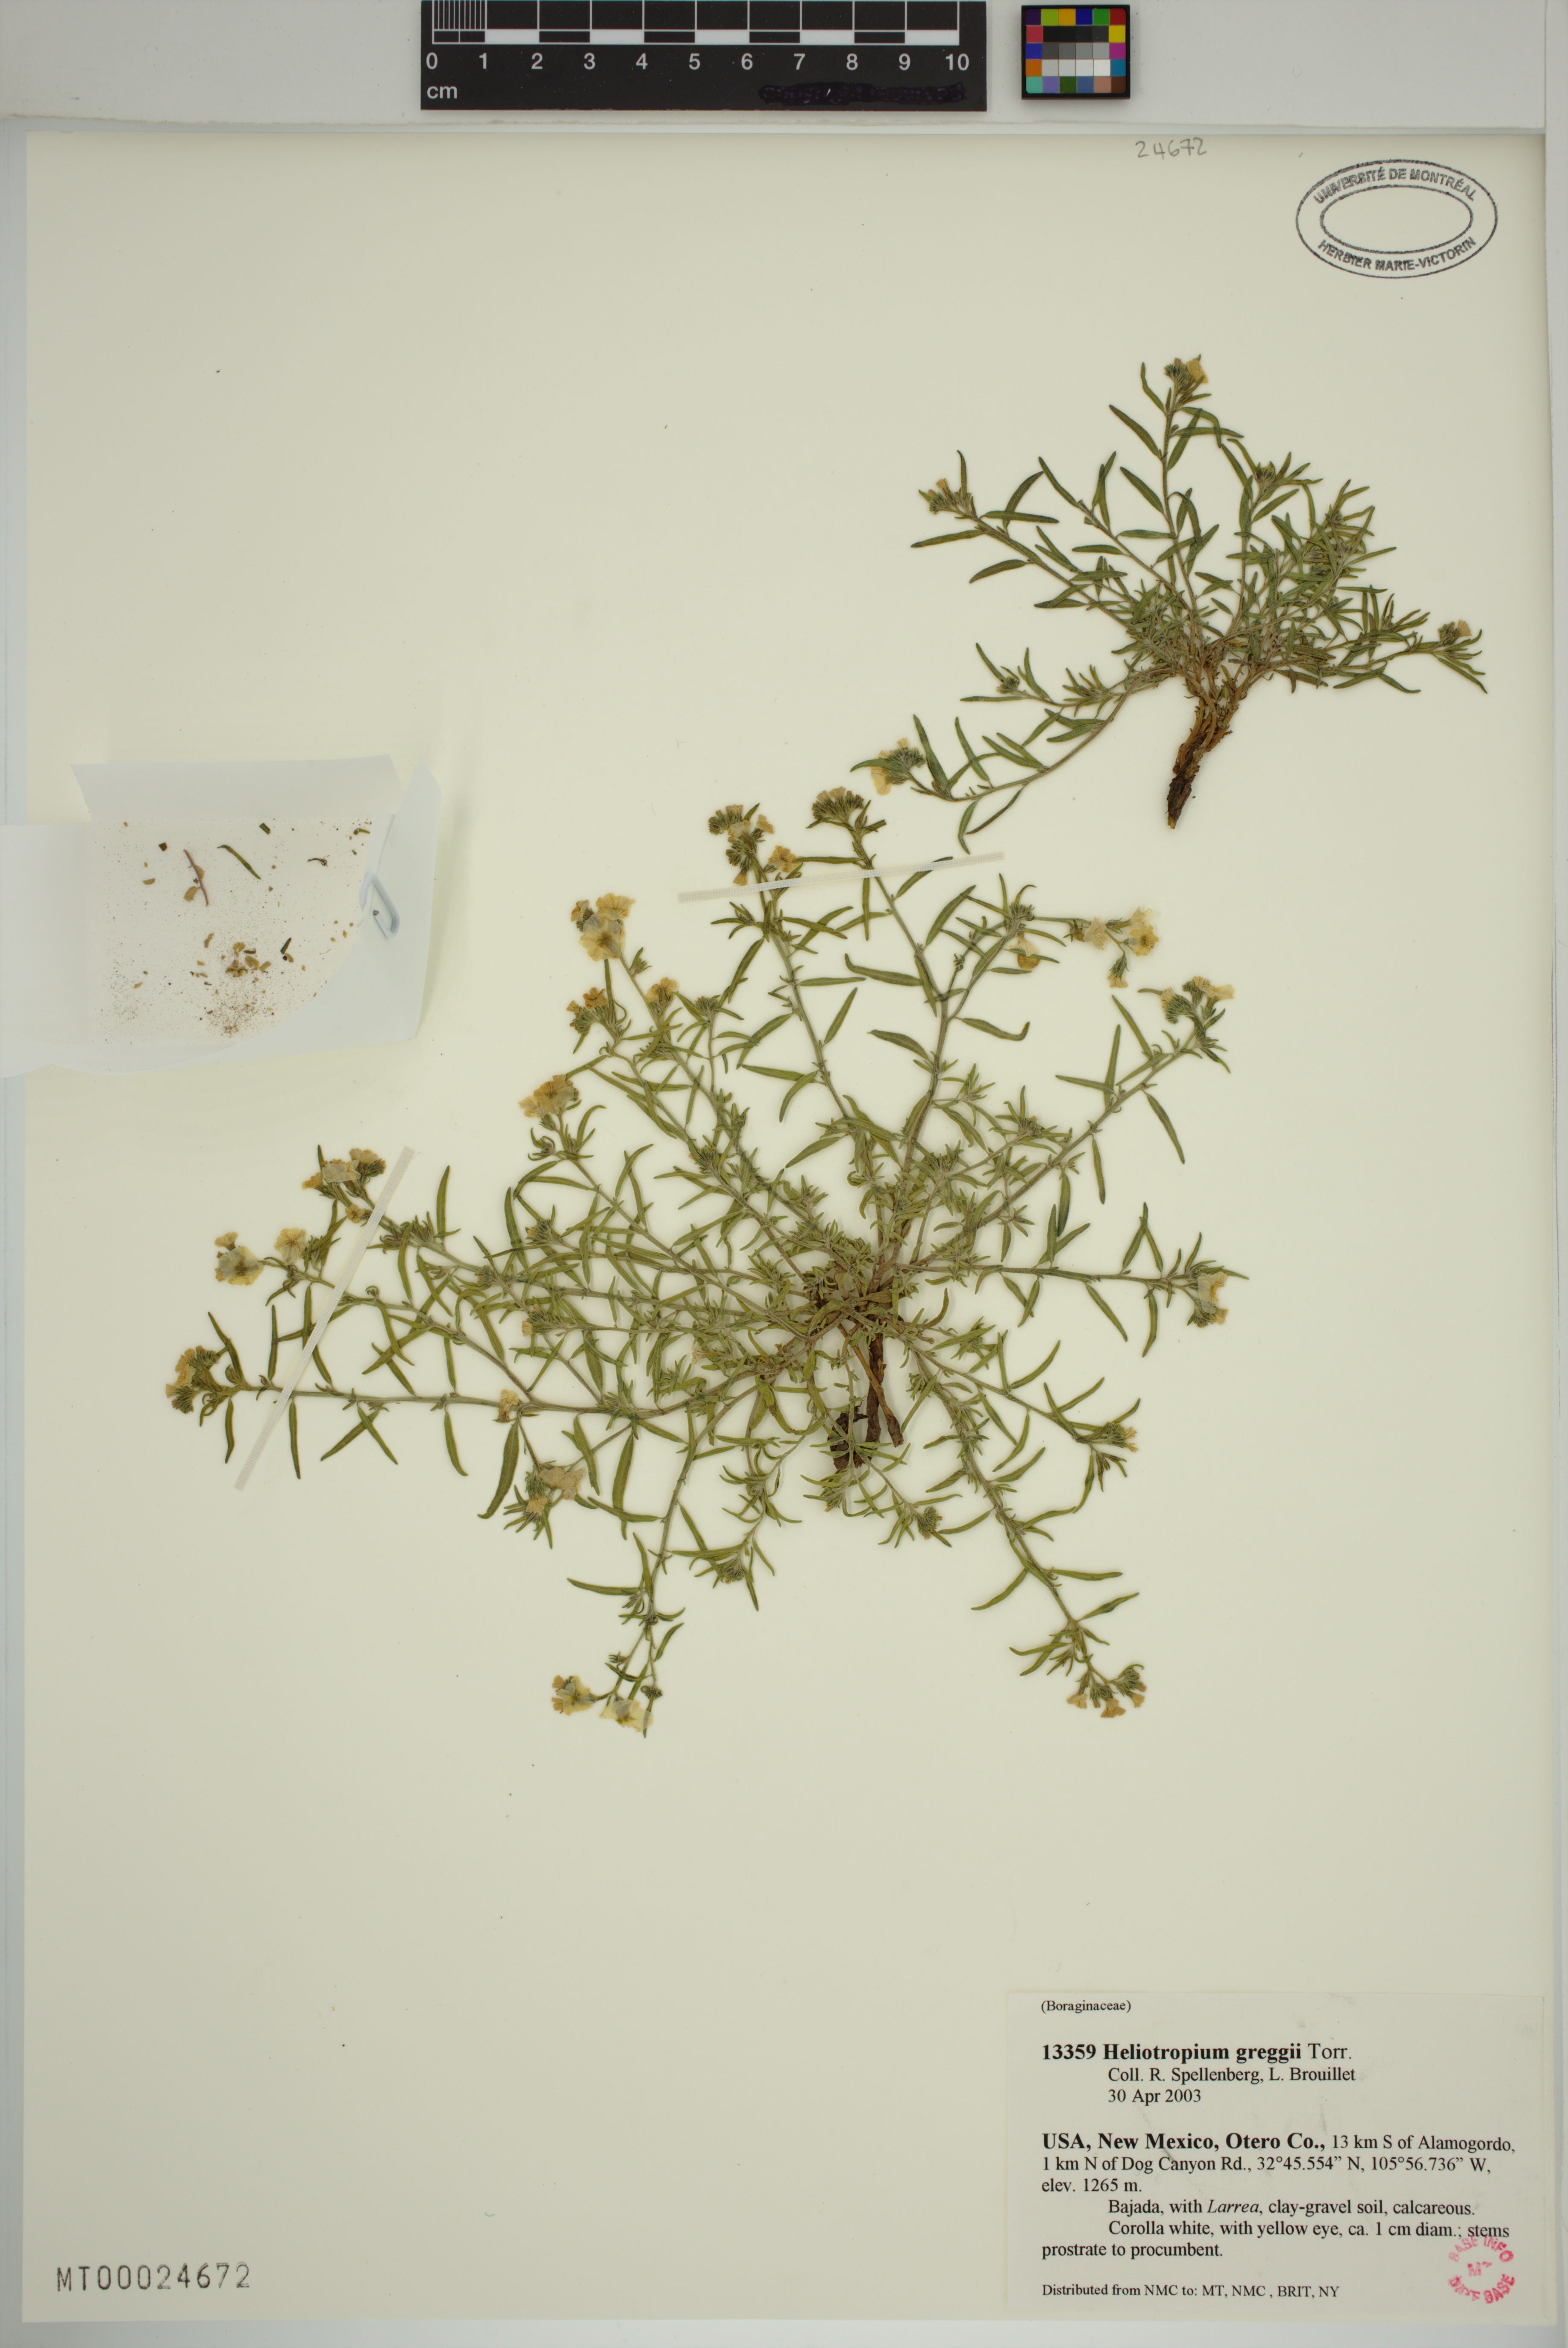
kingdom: Plantae
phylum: Tracheophyta
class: Magnoliopsida
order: Boraginales
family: Heliotropiaceae
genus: Euploca
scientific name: Euploca greggii
